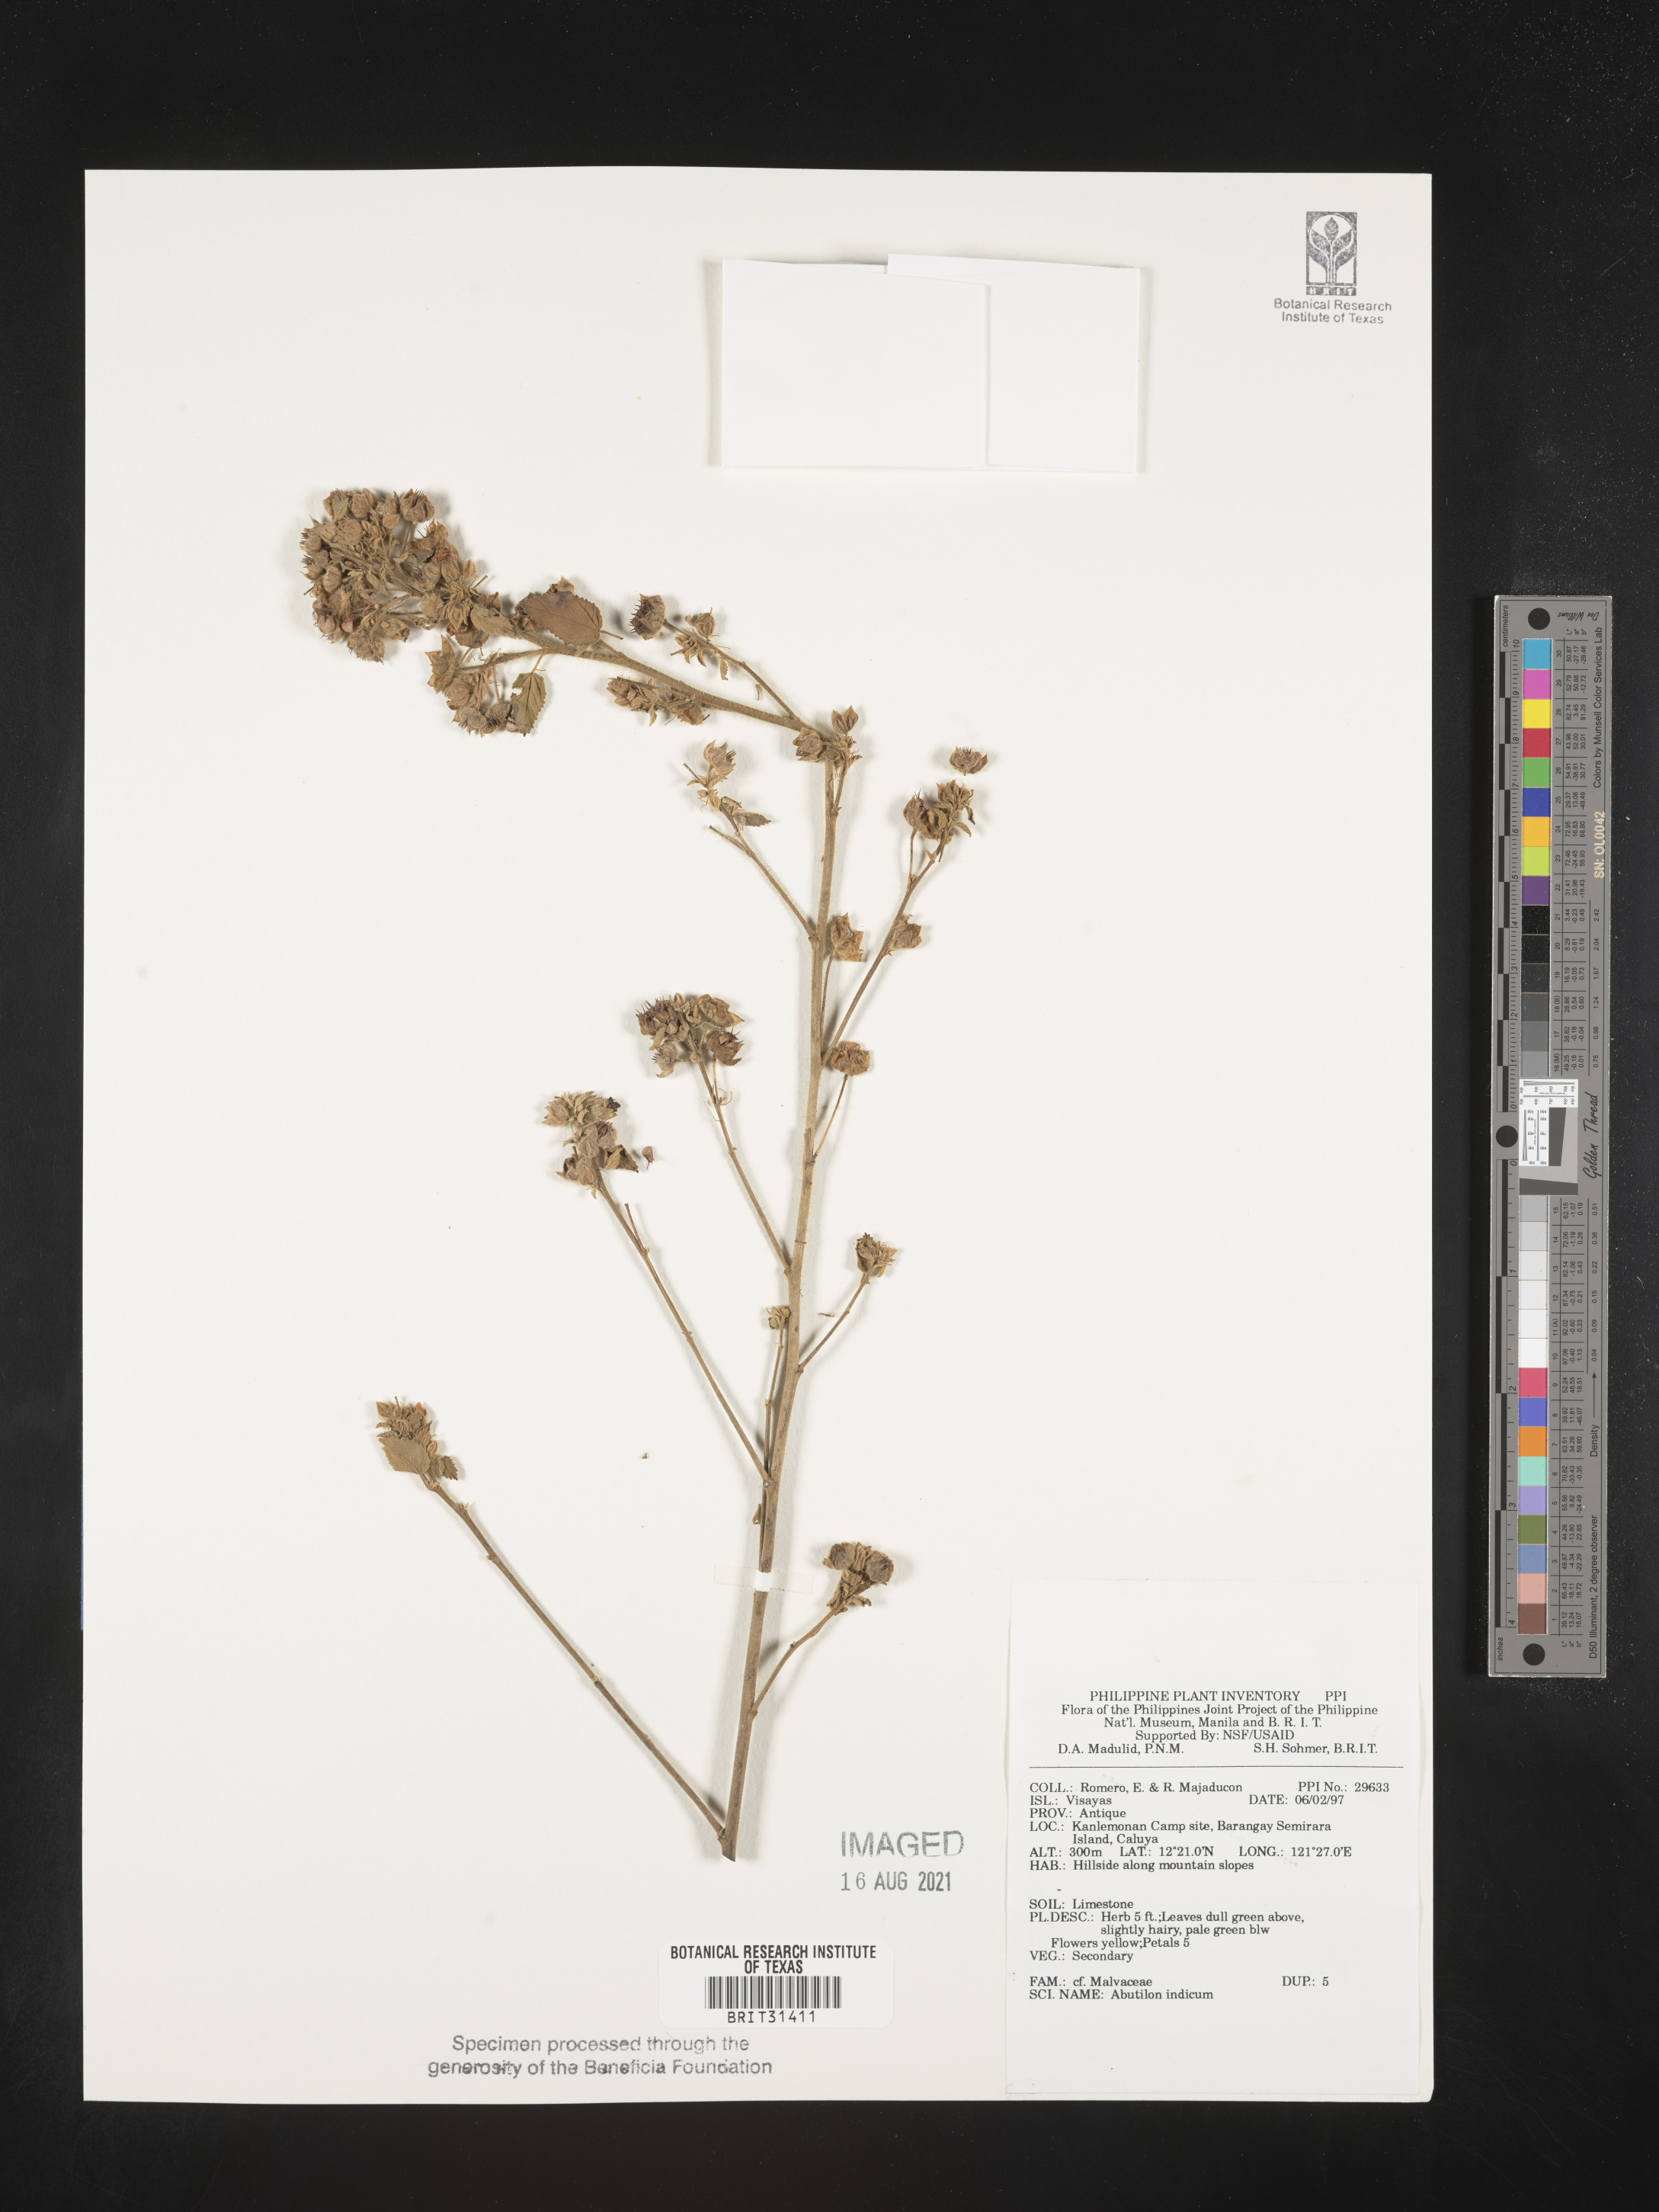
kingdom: Plantae
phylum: Tracheophyta
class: Magnoliopsida
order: Malvales
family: Malvaceae
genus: Abutilon
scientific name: Abutilon indicum
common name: Indian abutilon
